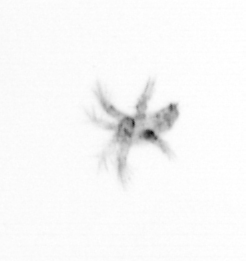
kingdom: Animalia
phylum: Arthropoda
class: Copepoda
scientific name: Copepoda
